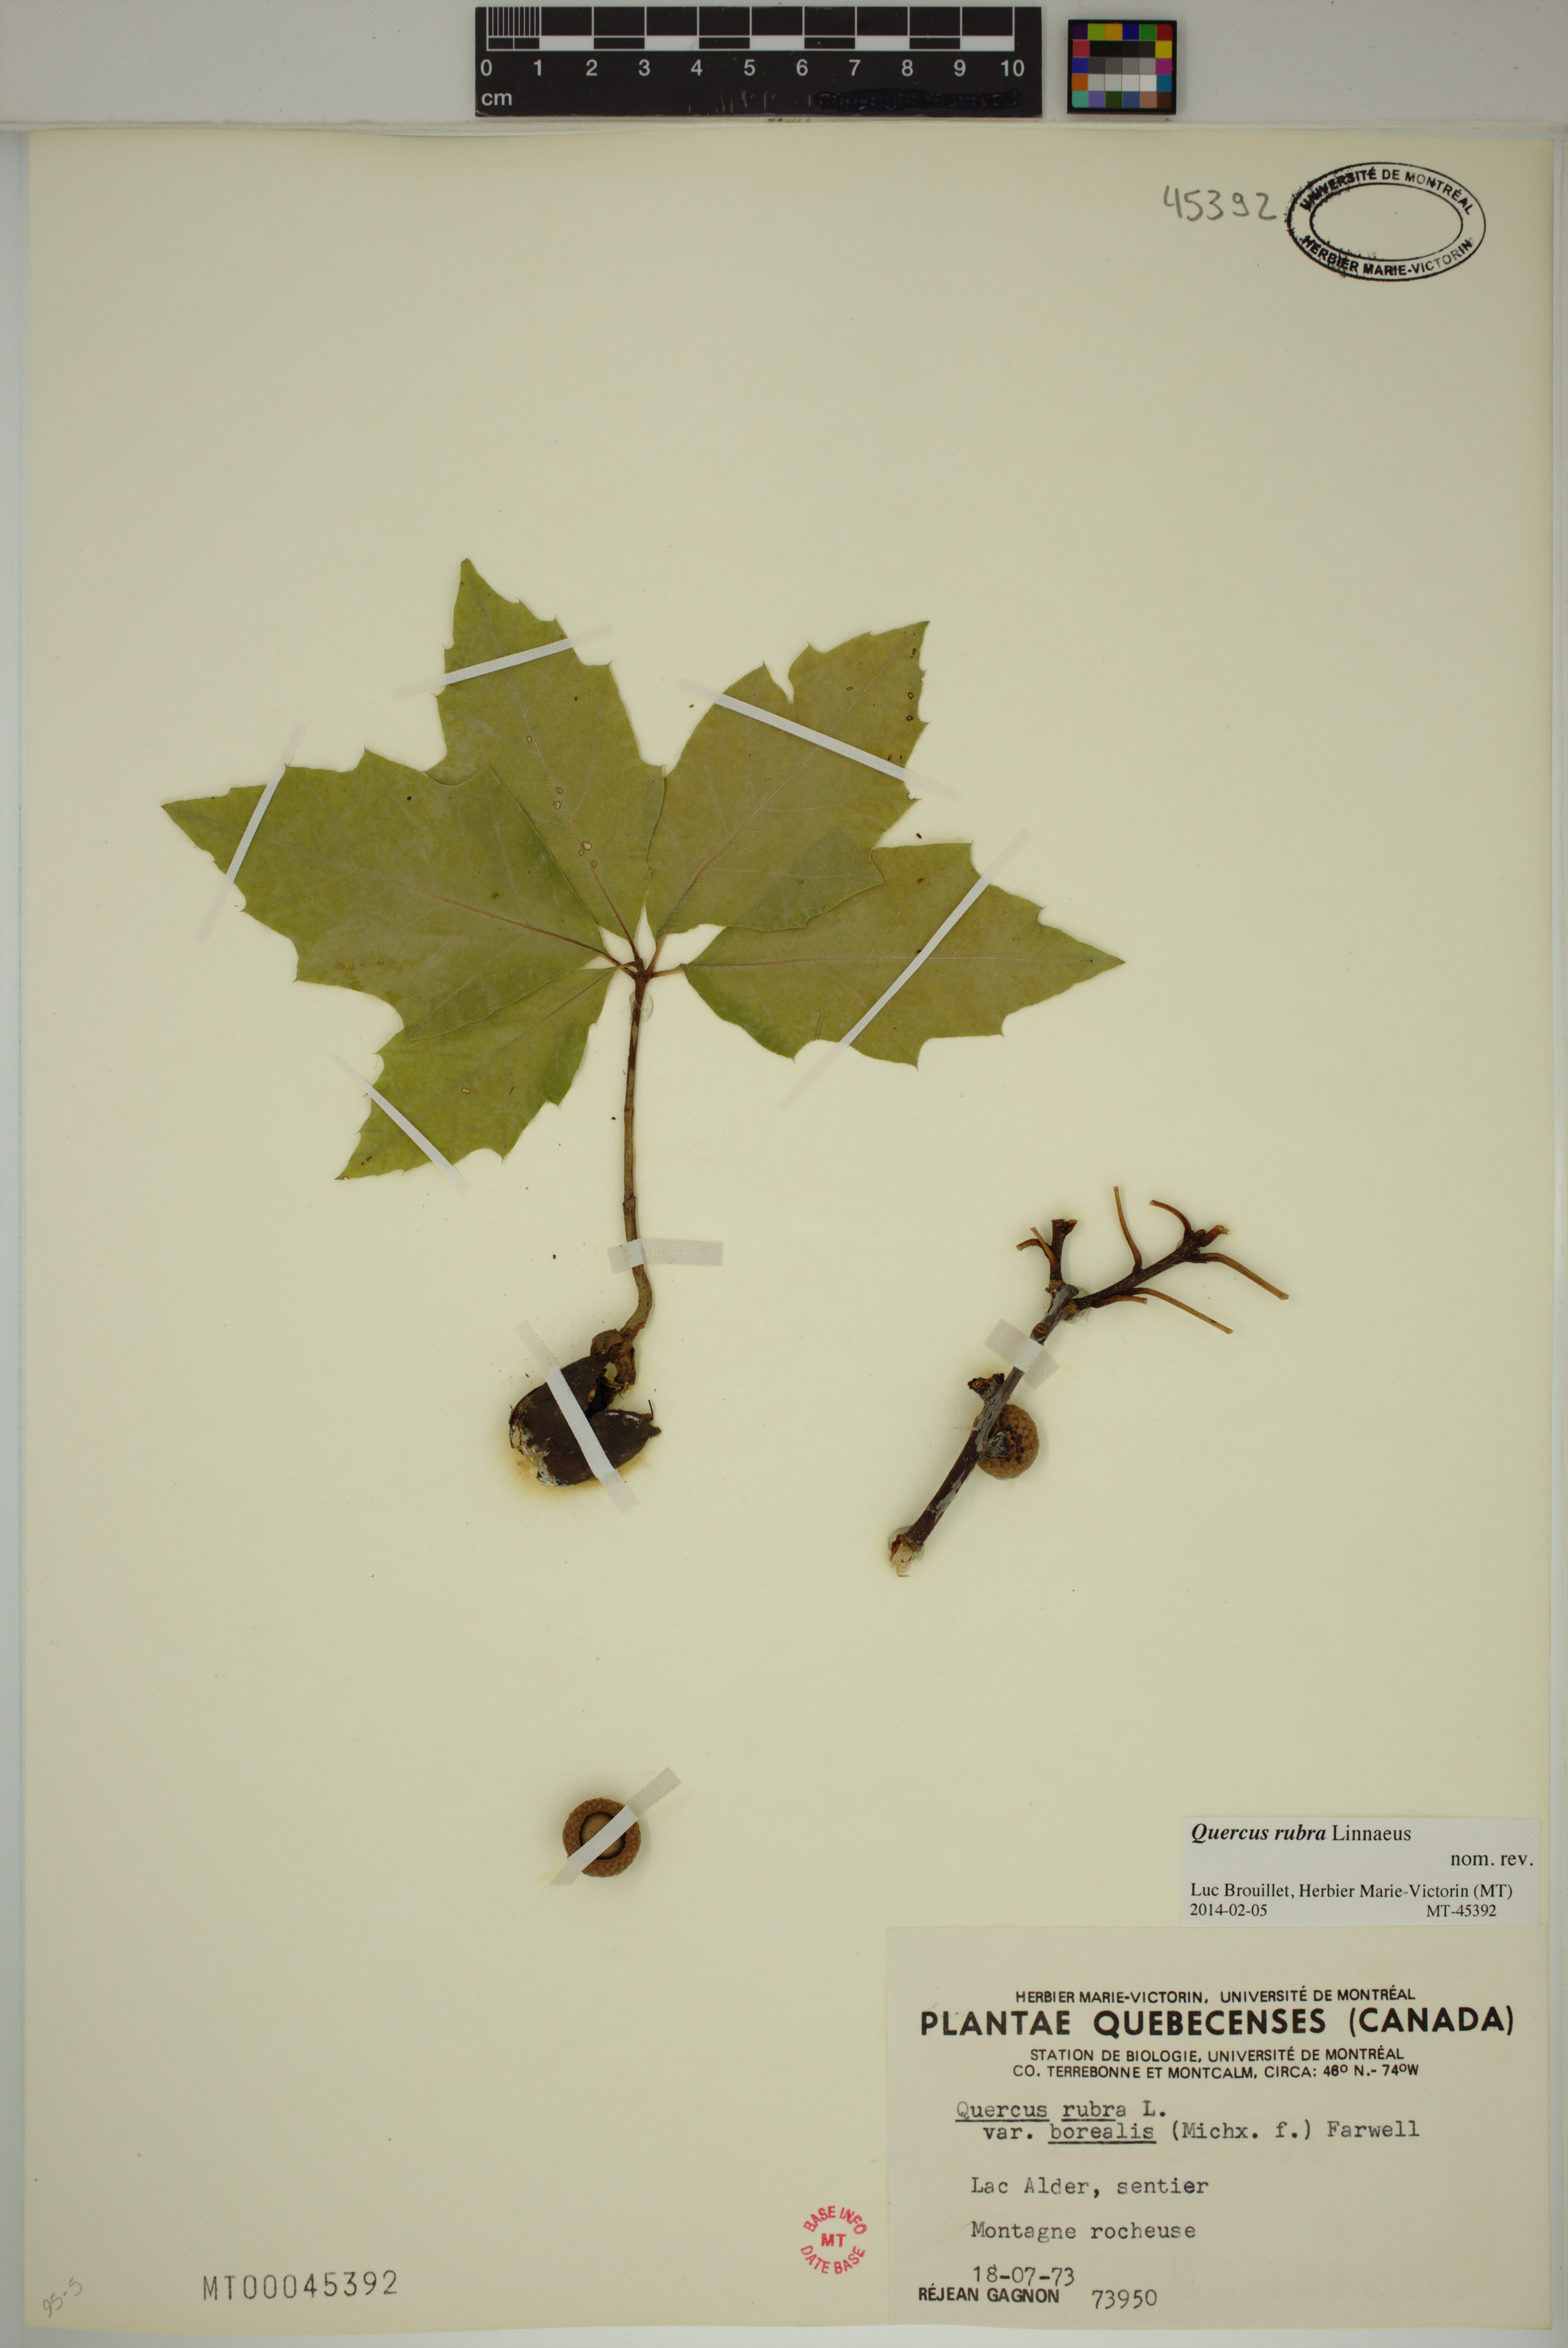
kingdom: Plantae
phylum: Tracheophyta
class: Magnoliopsida
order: Fagales
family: Fagaceae
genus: Quercus
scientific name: Quercus rubra
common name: Red oak
